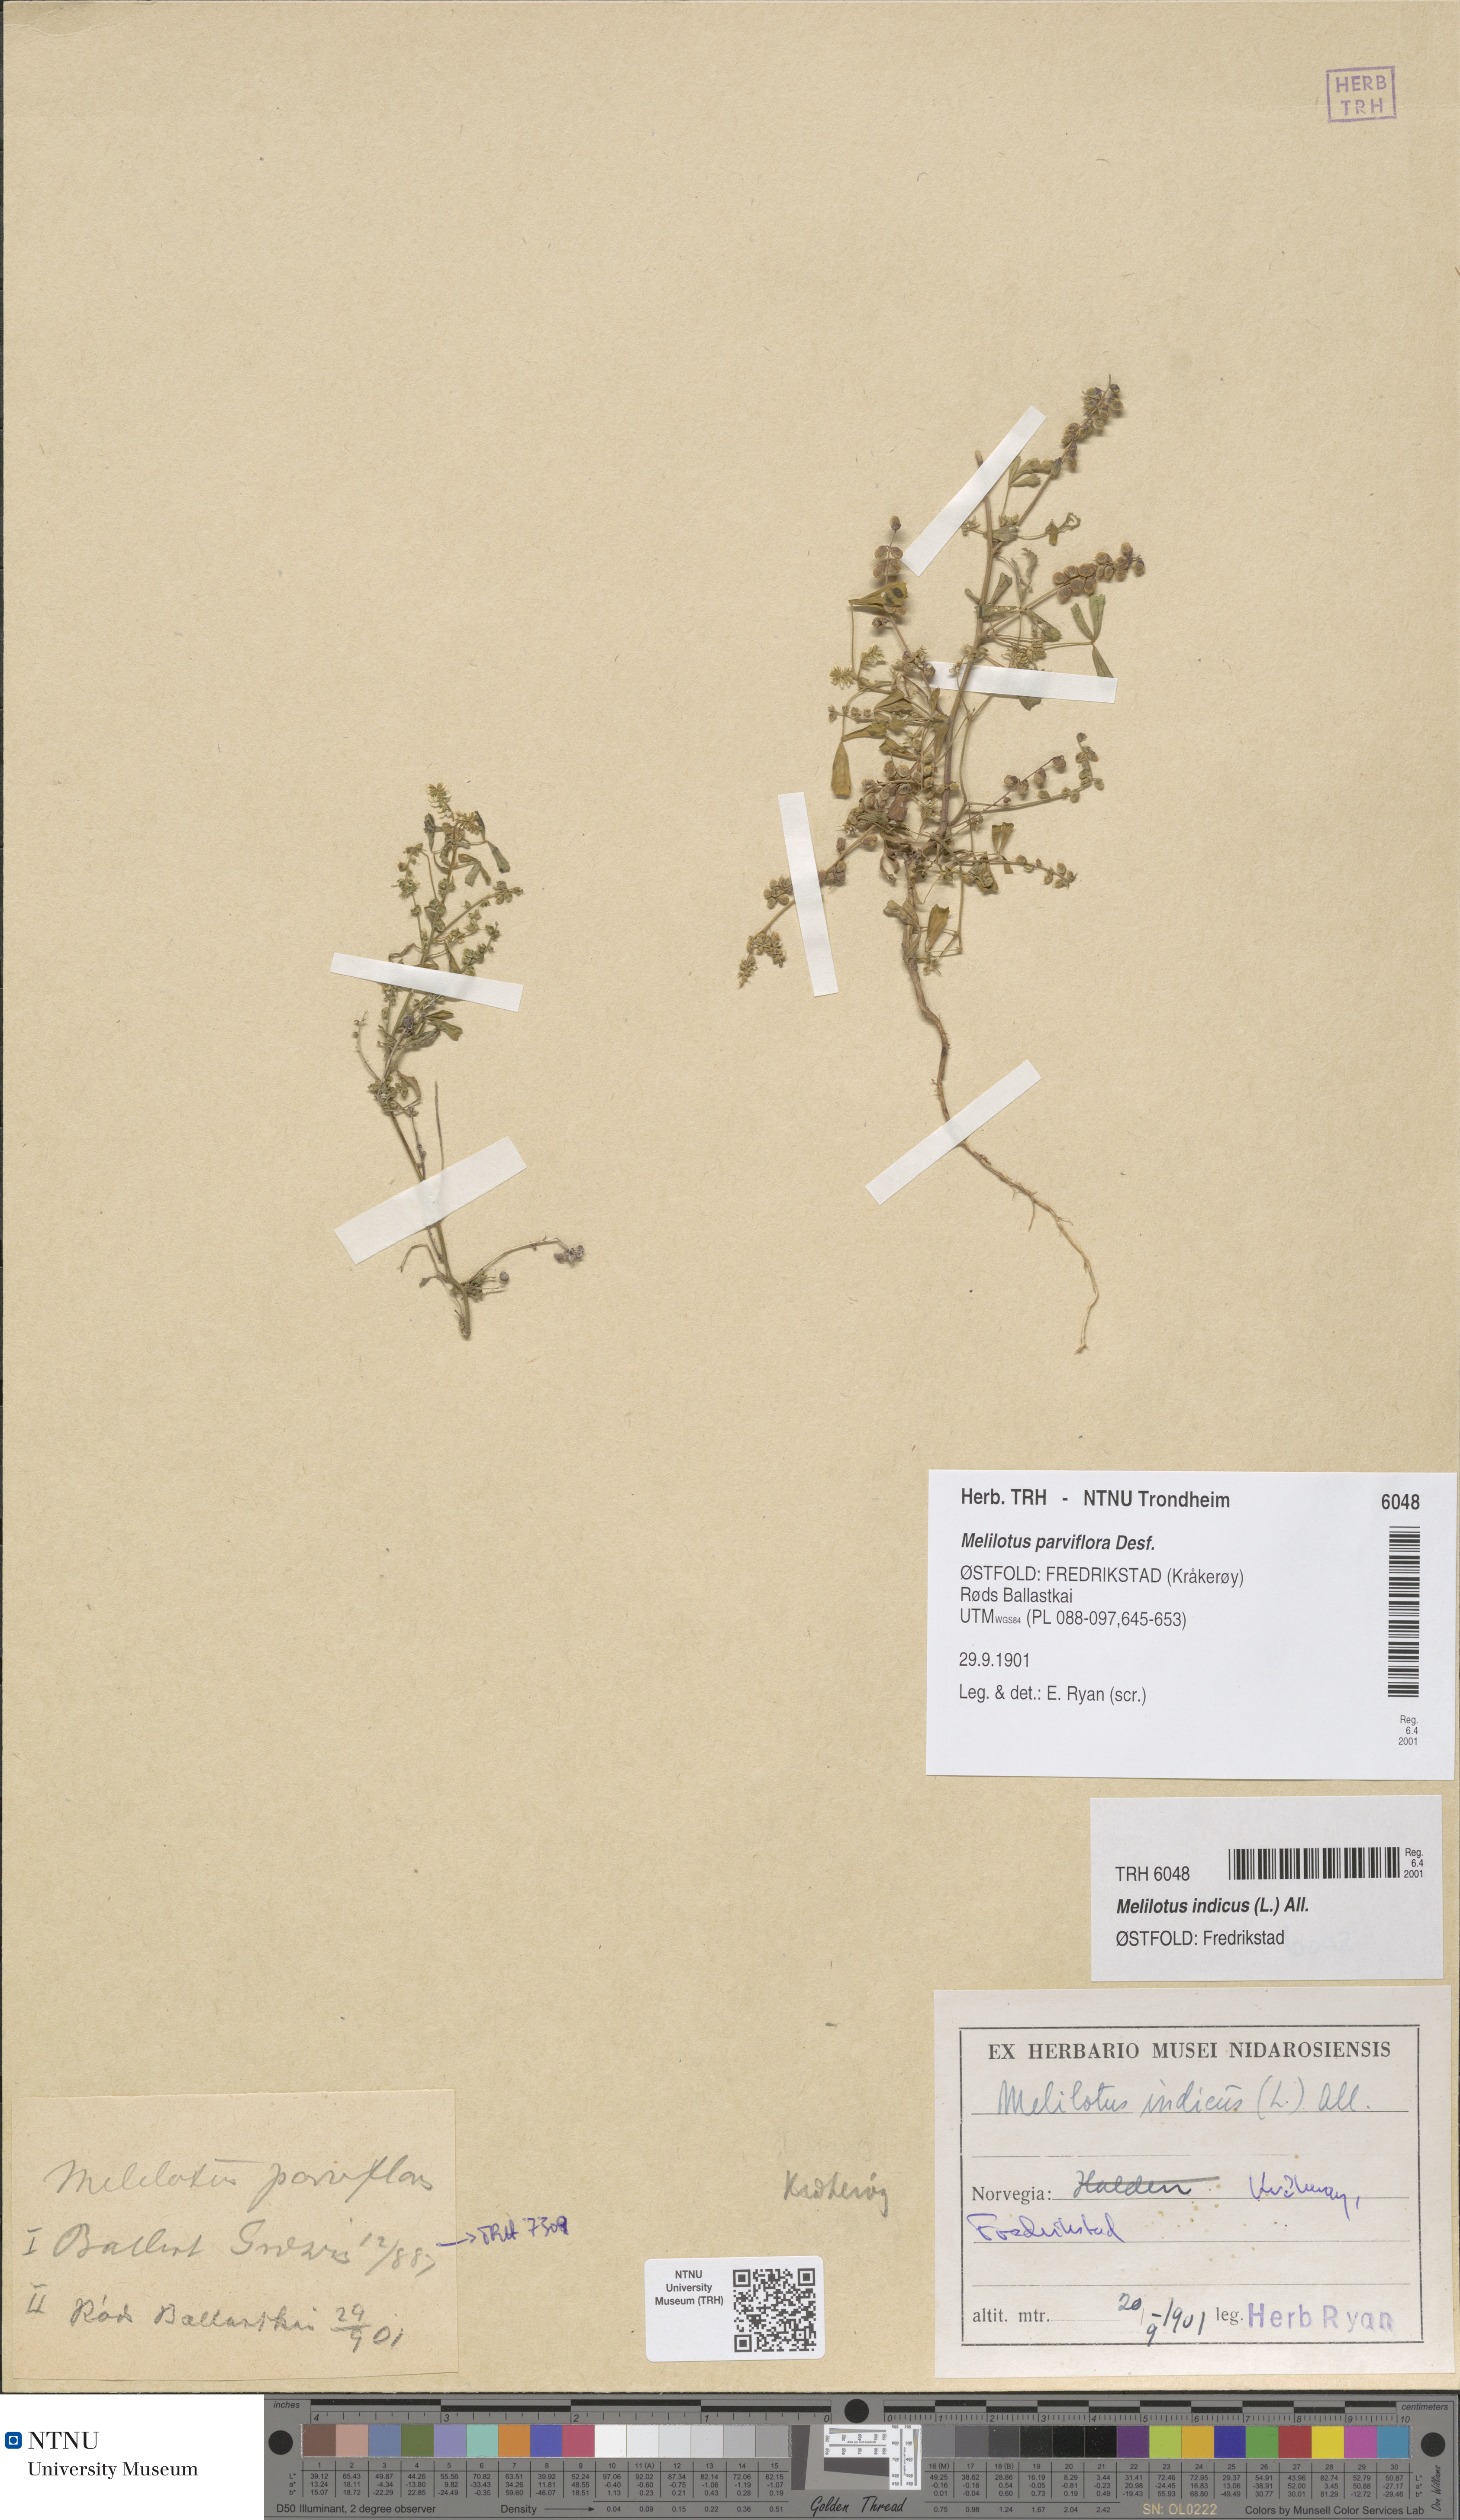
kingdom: Plantae
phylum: Tracheophyta
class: Magnoliopsida
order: Fabales
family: Fabaceae
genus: Melilotus
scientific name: Melilotus indicus
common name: Small melilot
